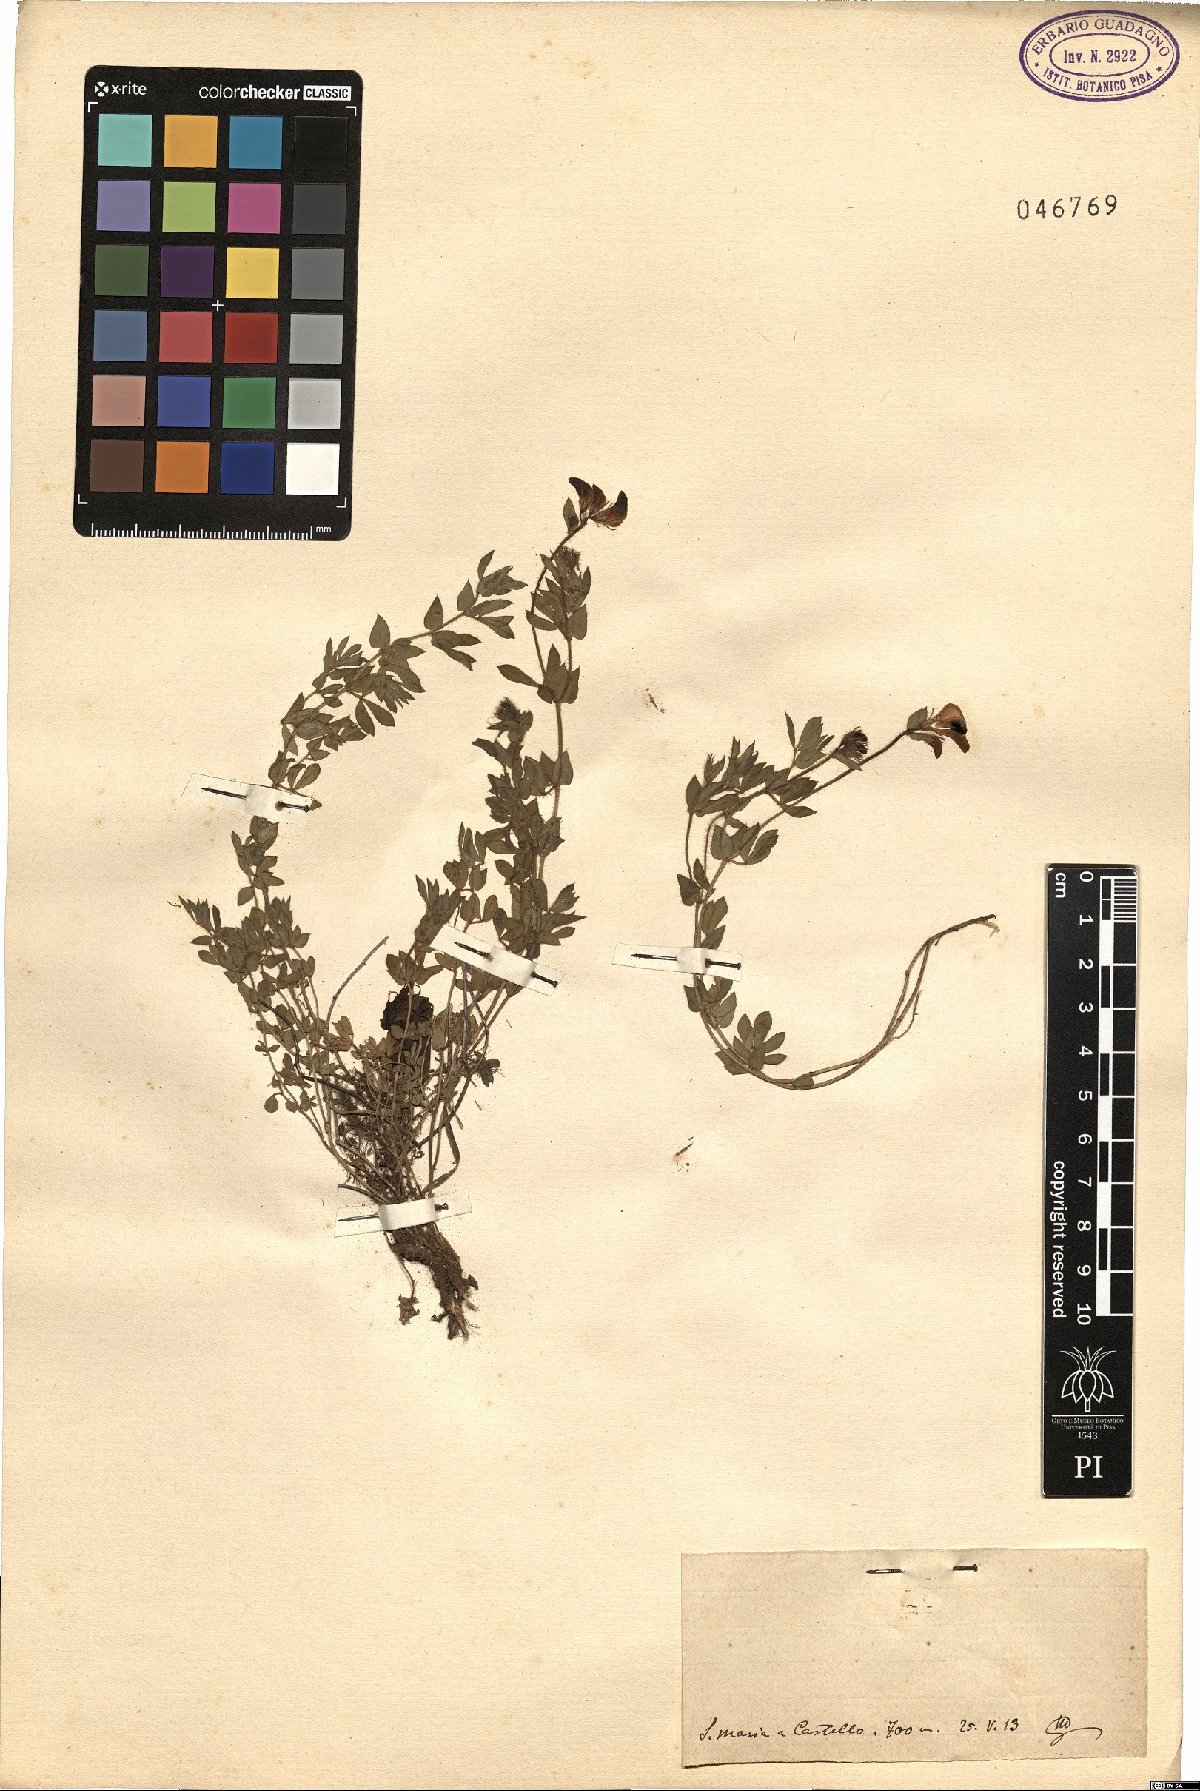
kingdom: Plantae
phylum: Tracheophyta
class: Magnoliopsida
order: Fabales
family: Fabaceae
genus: Lotus
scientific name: Lotus
